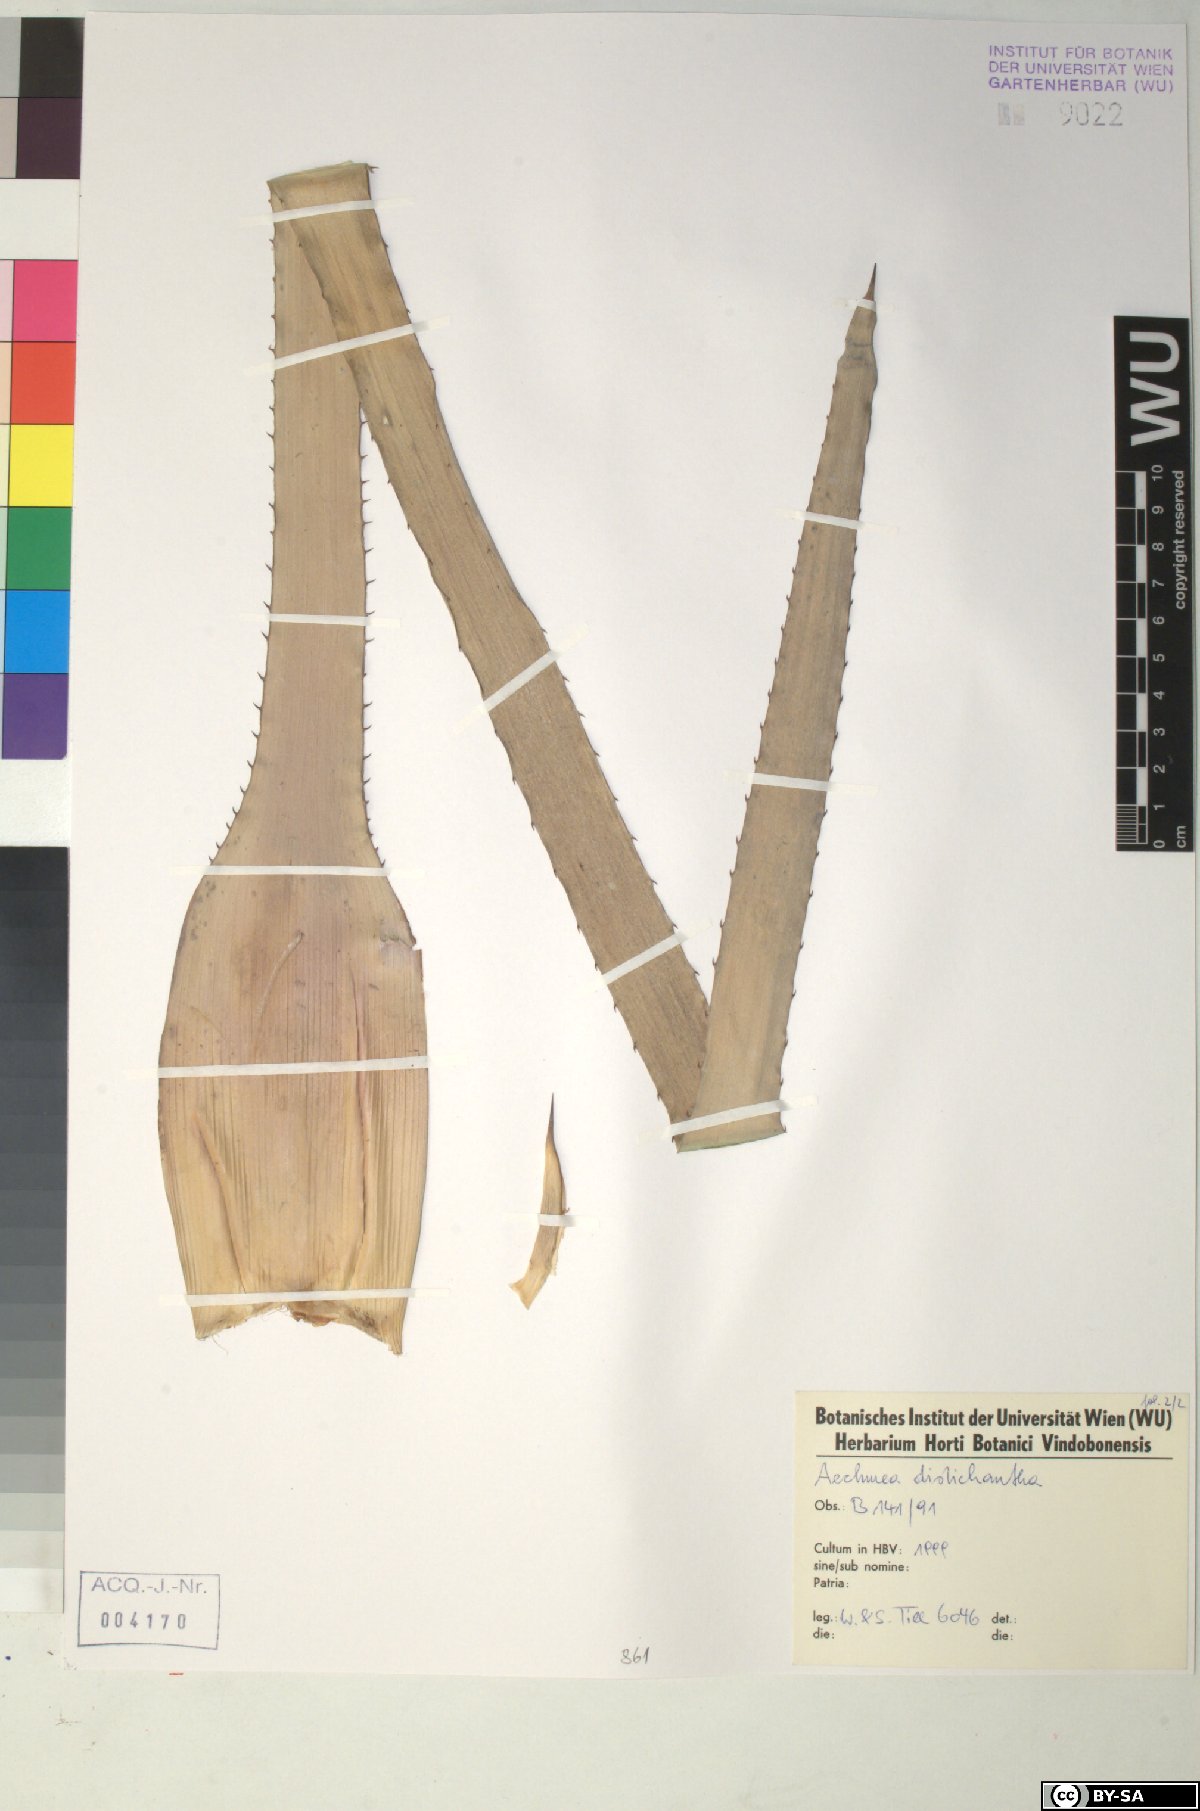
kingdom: Plantae
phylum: Tracheophyta
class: Liliopsida
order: Poales
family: Bromeliaceae
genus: Aechmea
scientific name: Aechmea distichantha
